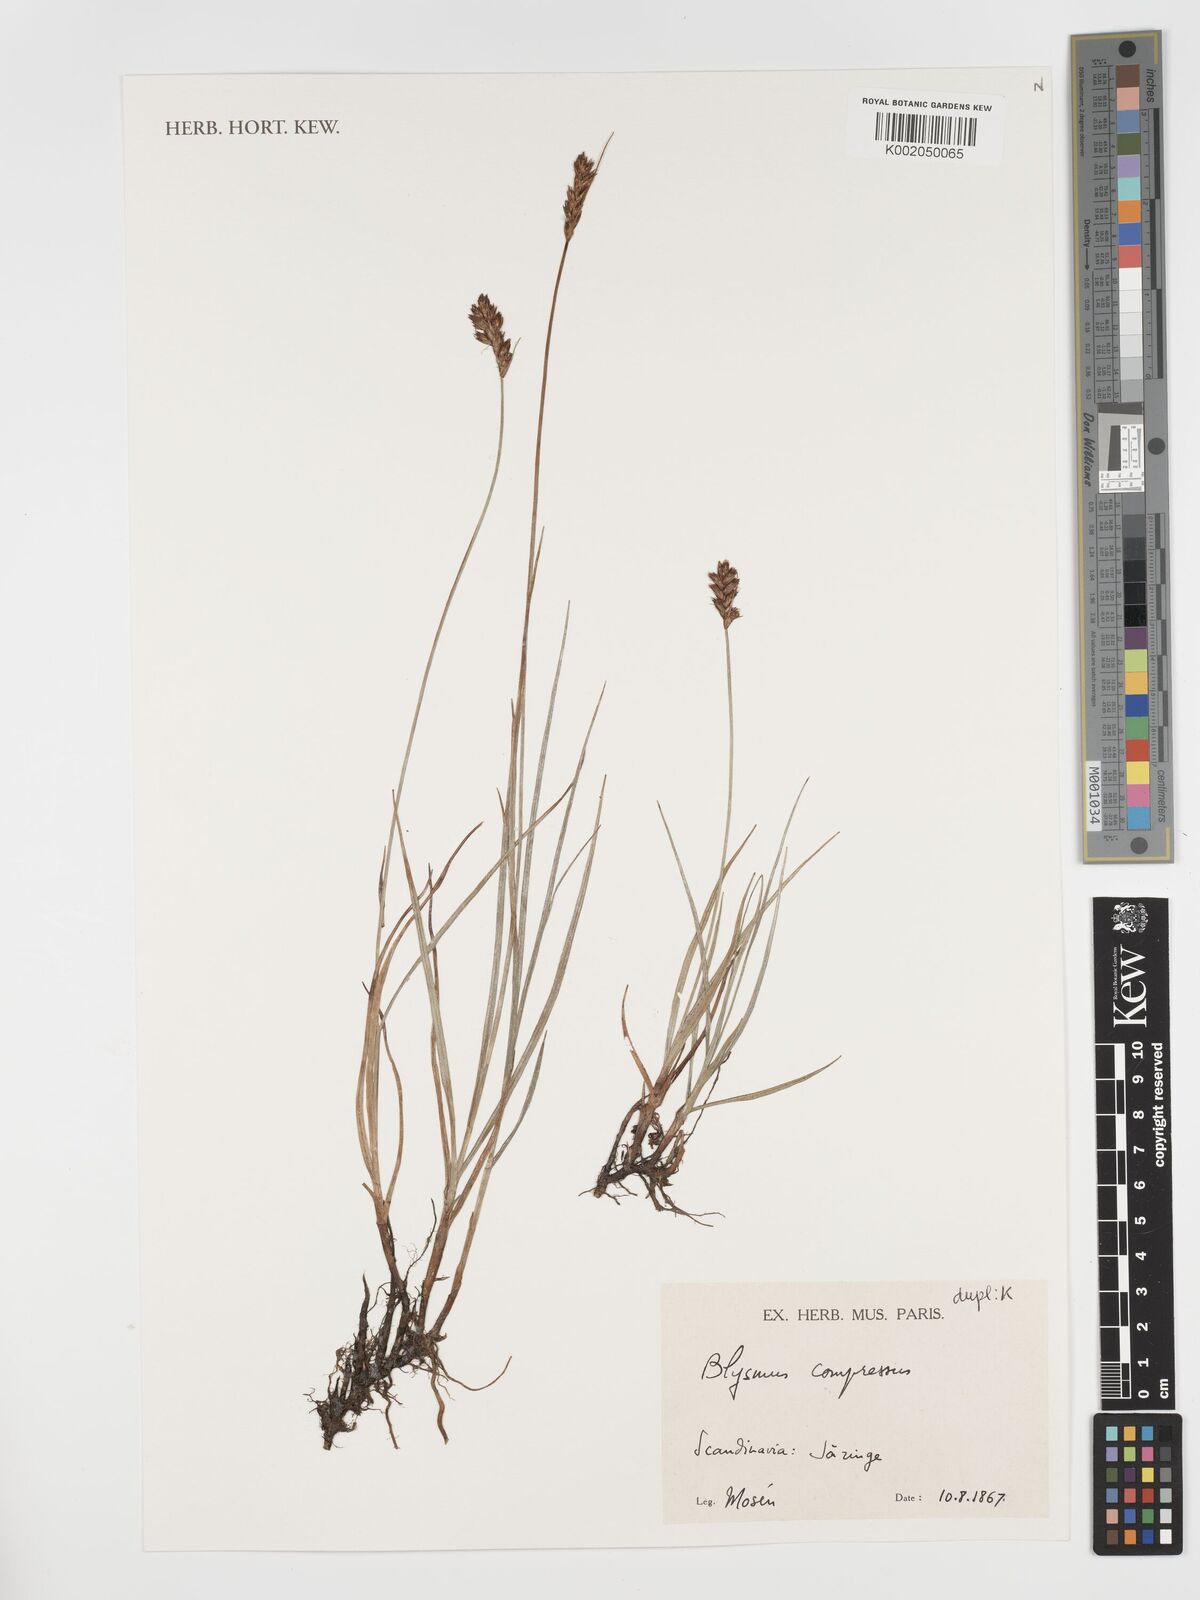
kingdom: Plantae
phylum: Tracheophyta
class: Liliopsida
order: Poales
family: Cyperaceae
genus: Blysmus
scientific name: Blysmus compressus
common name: Flat-sedge
